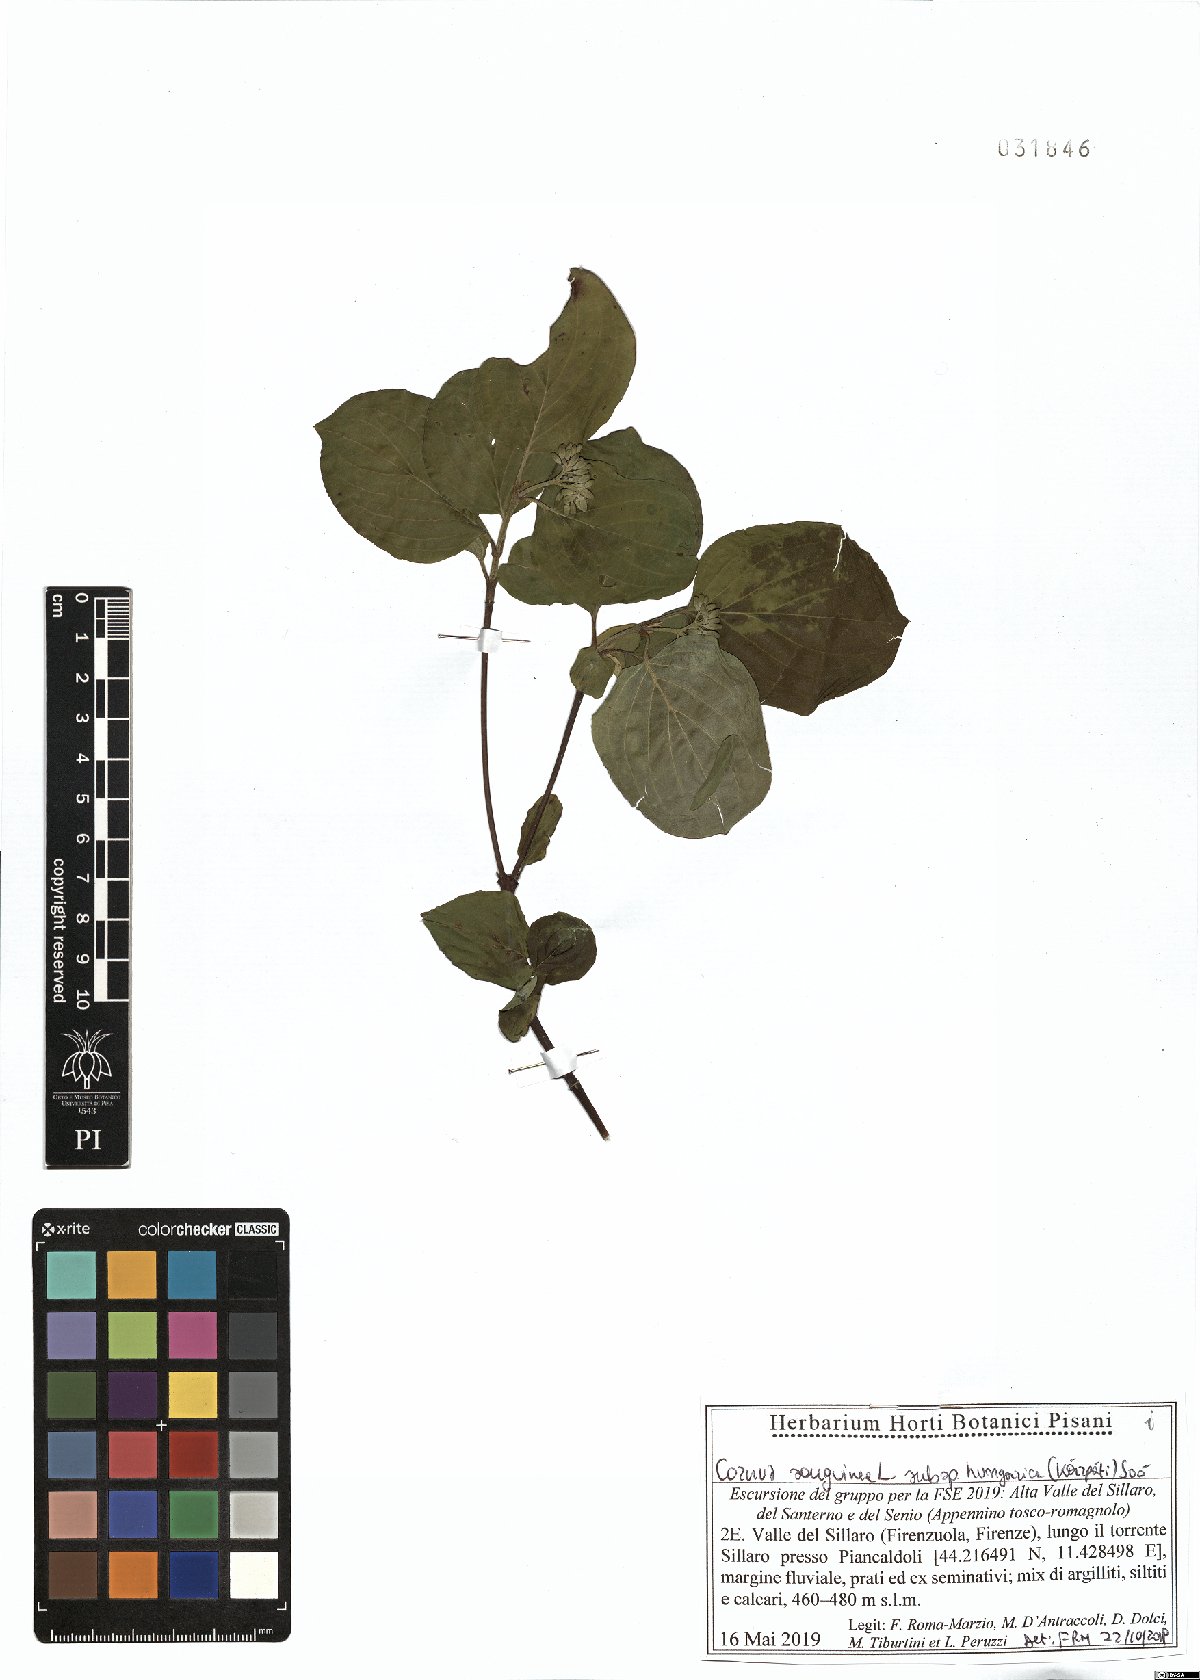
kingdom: Plantae
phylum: Tracheophyta
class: Magnoliopsida
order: Cornales
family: Cornaceae
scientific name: Cornaceae
